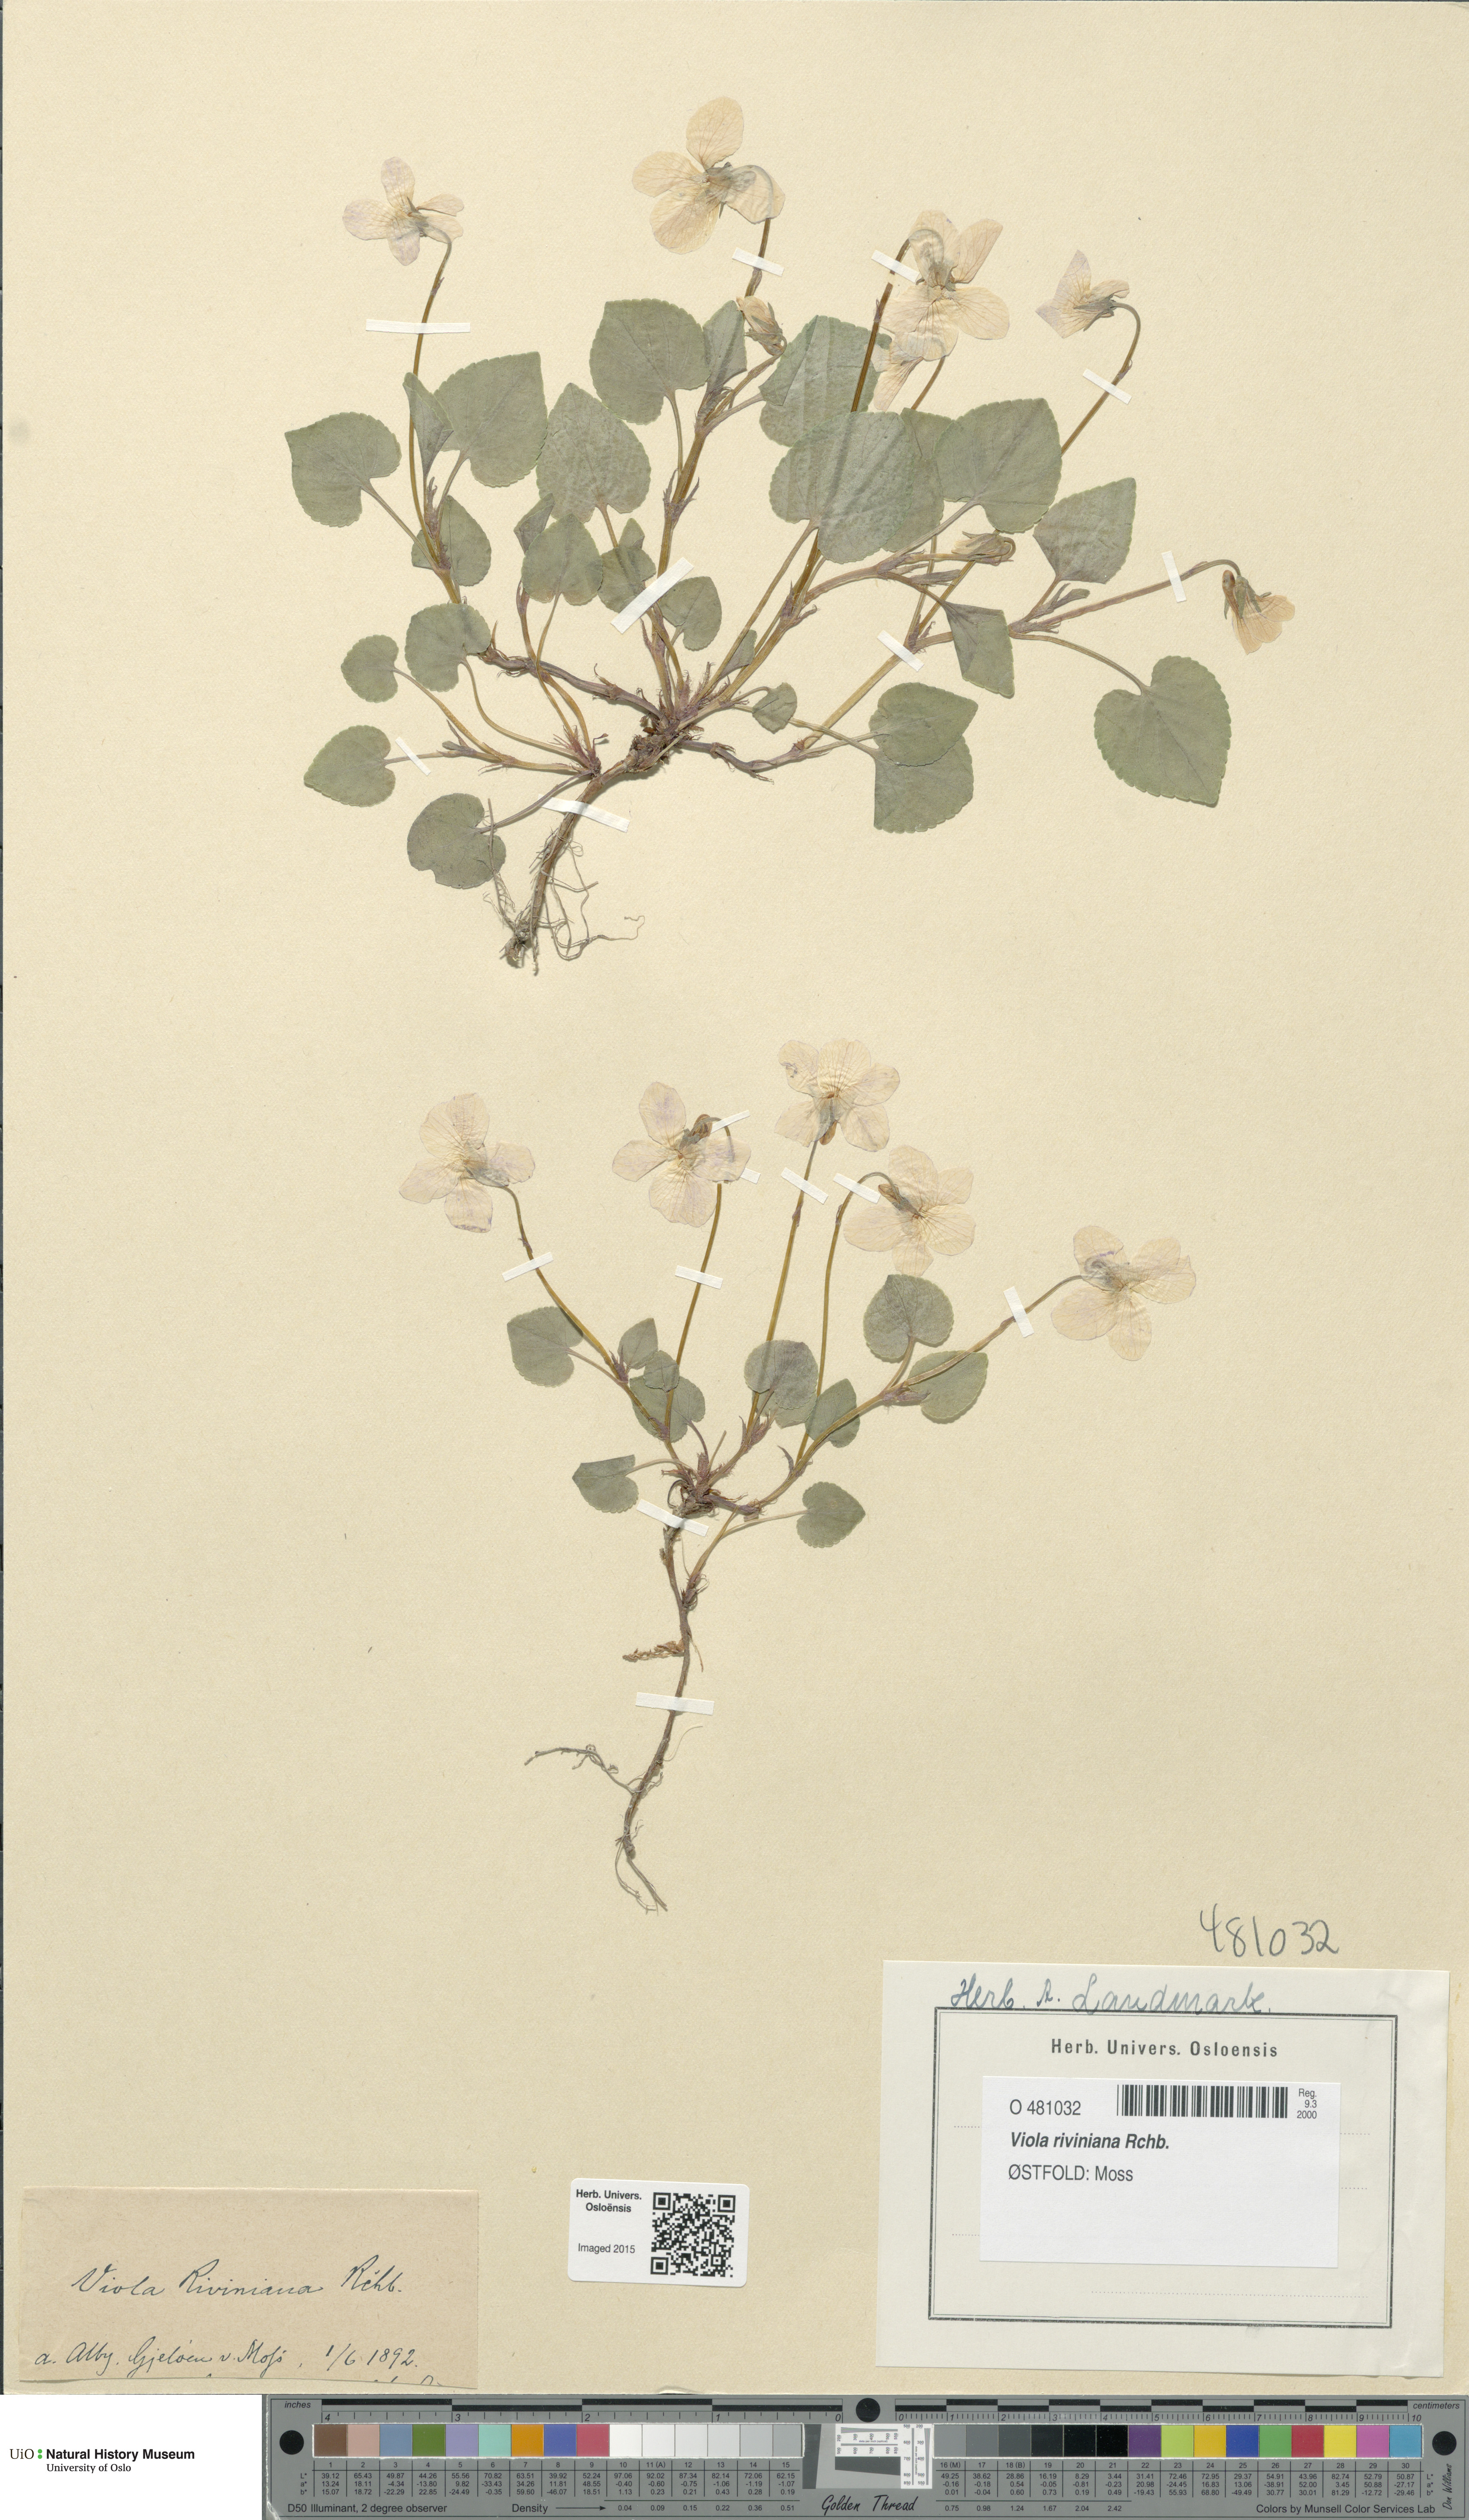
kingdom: Plantae
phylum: Tracheophyta
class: Magnoliopsida
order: Malpighiales
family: Violaceae
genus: Viola
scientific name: Viola riviniana
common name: Common dog-violet
